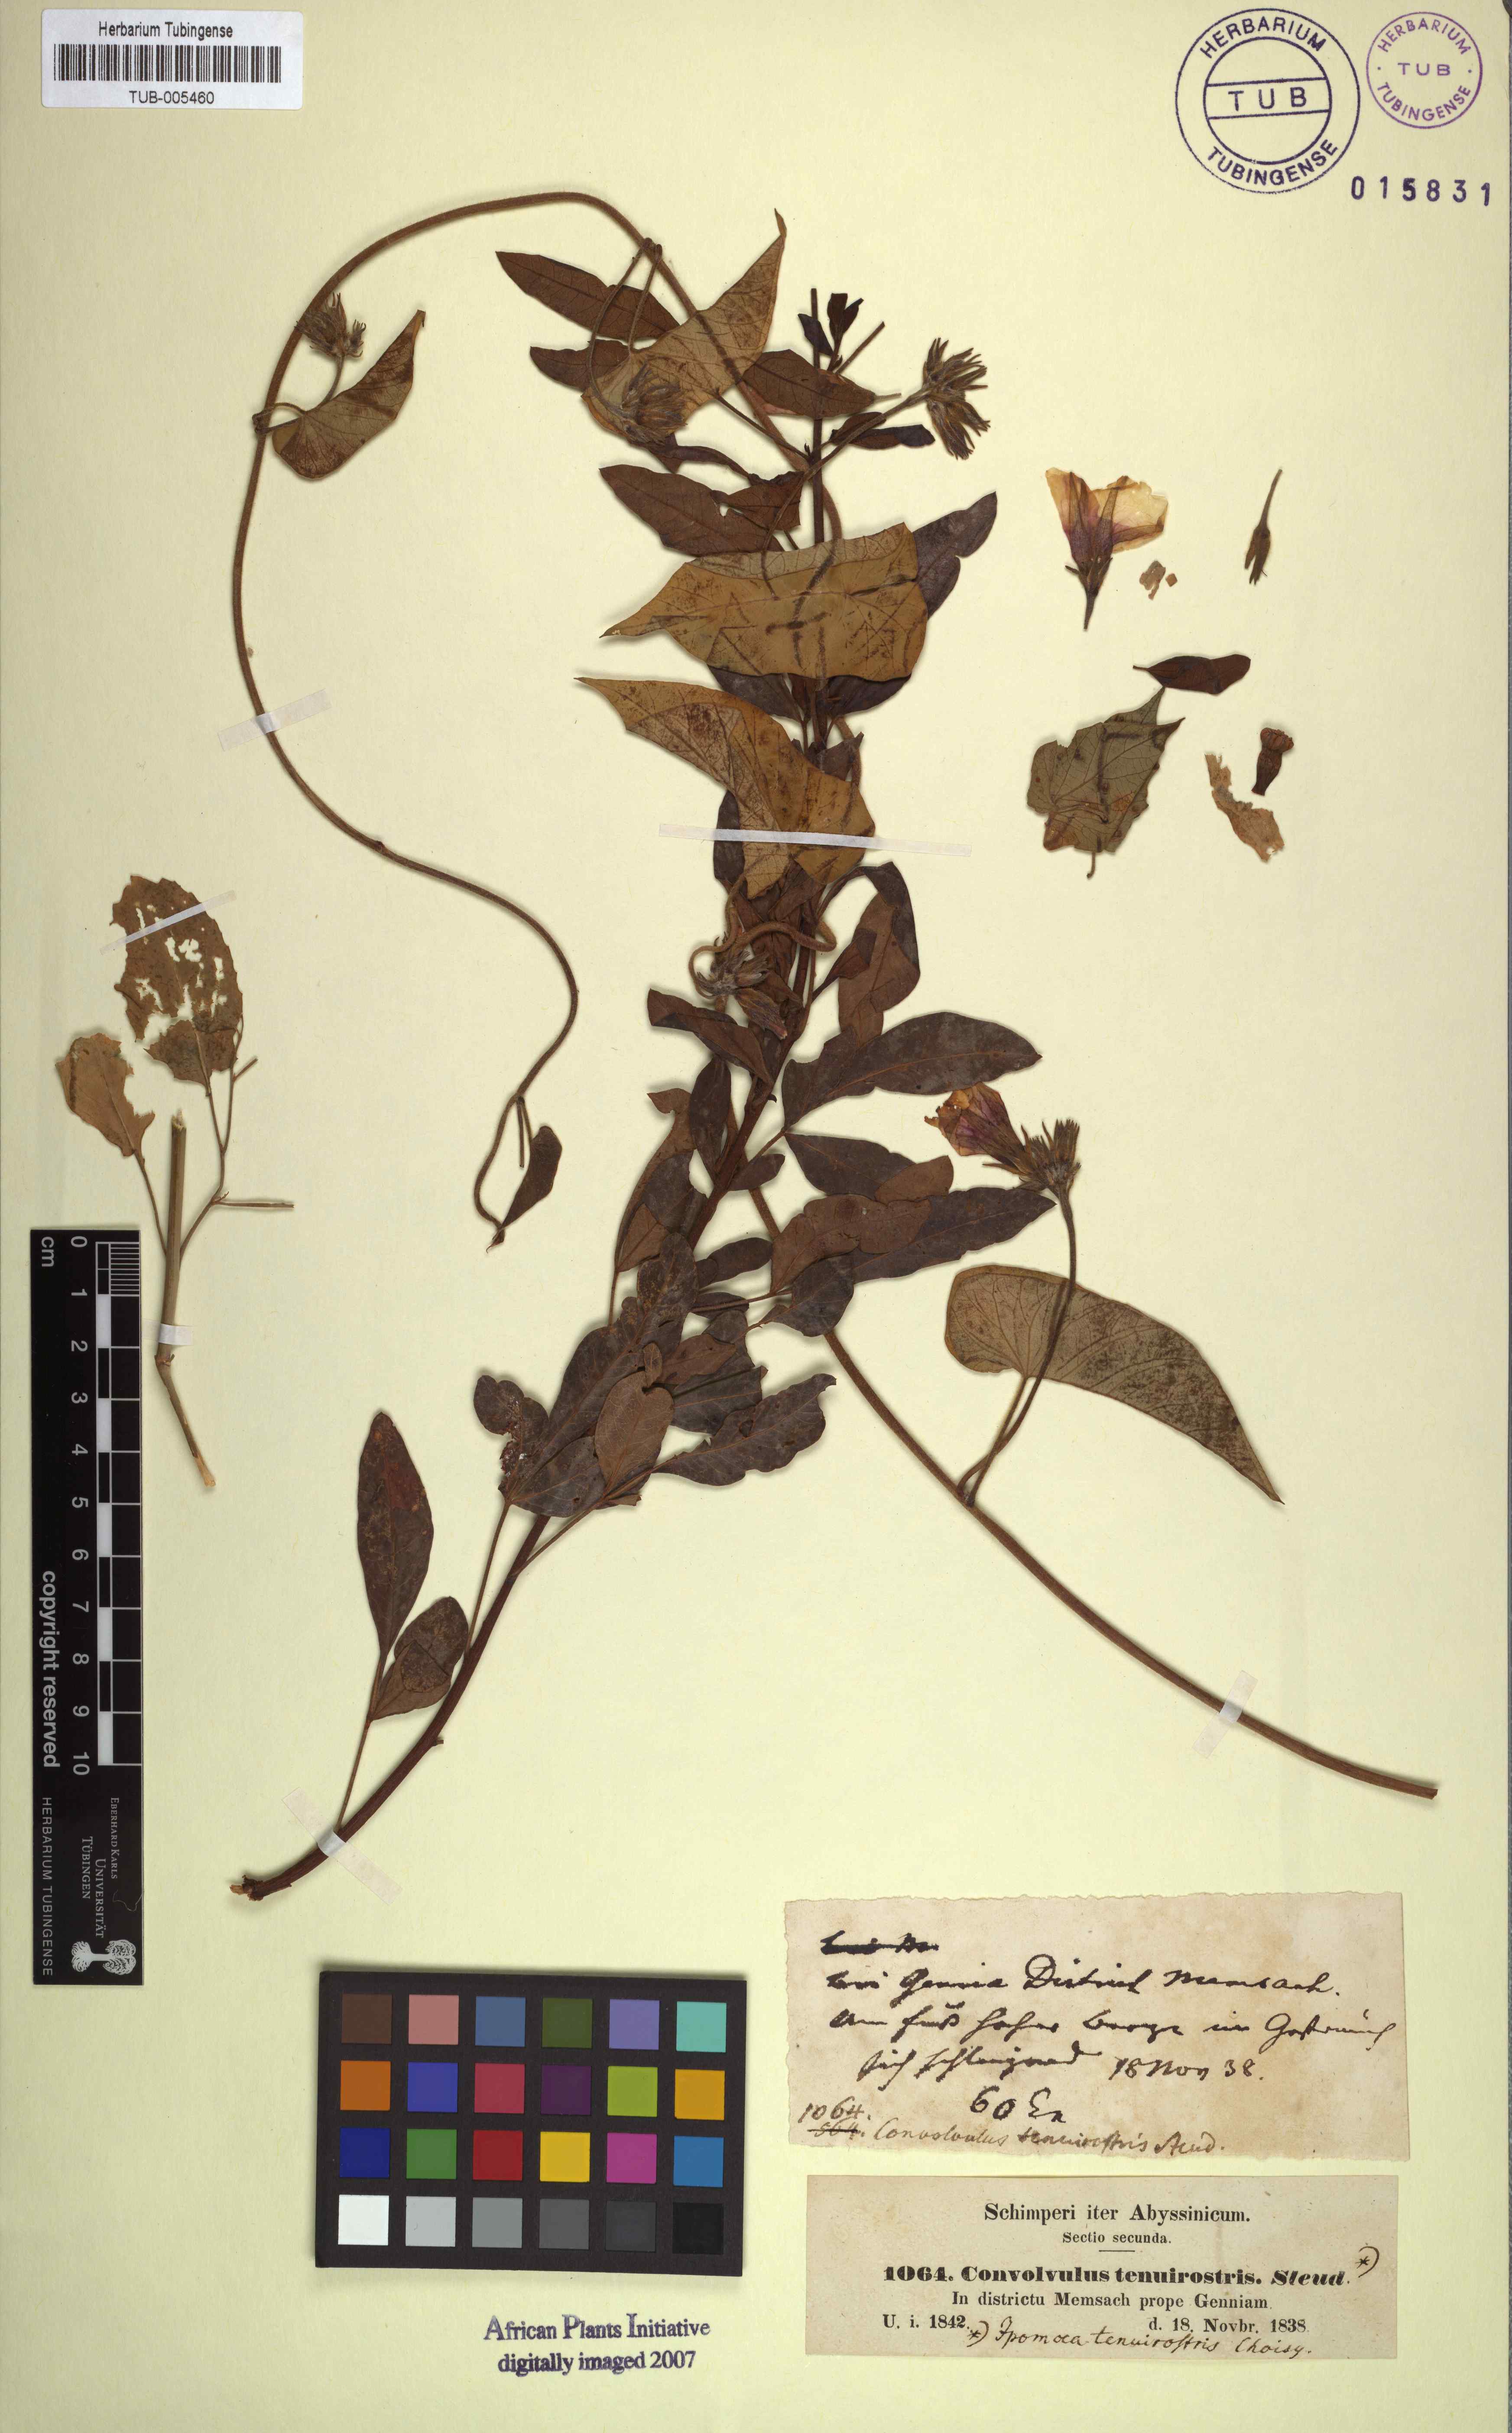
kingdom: Plantae
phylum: Tracheophyta
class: Magnoliopsida
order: Solanales
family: Convolvulaceae
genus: Ipomoea
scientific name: Ipomoea tenuirostris
